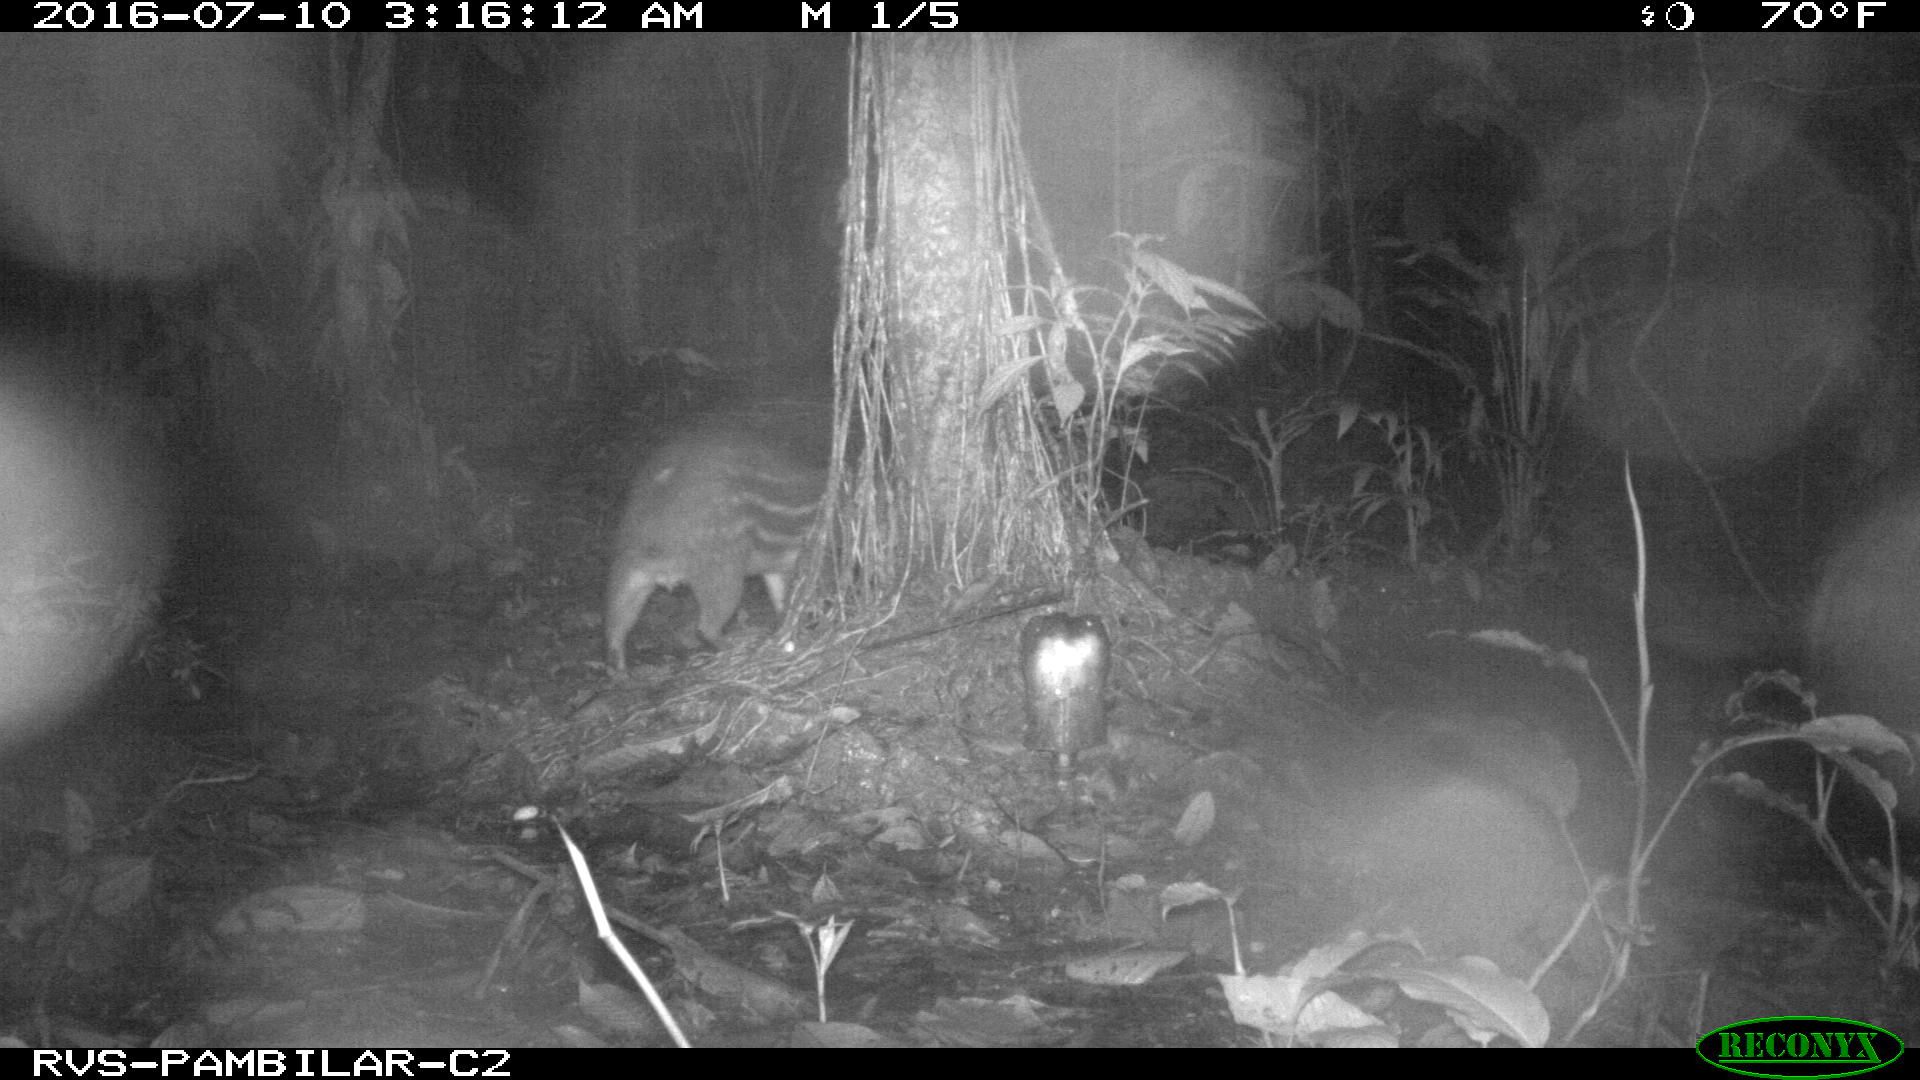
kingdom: Animalia
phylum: Chordata
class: Mammalia
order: Rodentia
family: Cuniculidae
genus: Cuniculus
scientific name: Cuniculus paca
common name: Lowland paca
